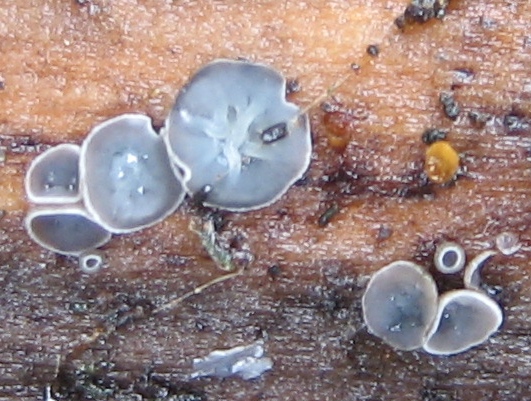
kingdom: Fungi
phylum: Ascomycota
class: Leotiomycetes
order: Helotiales
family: Mollisiaceae
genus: Mollisia
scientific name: Mollisia
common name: gråskive
